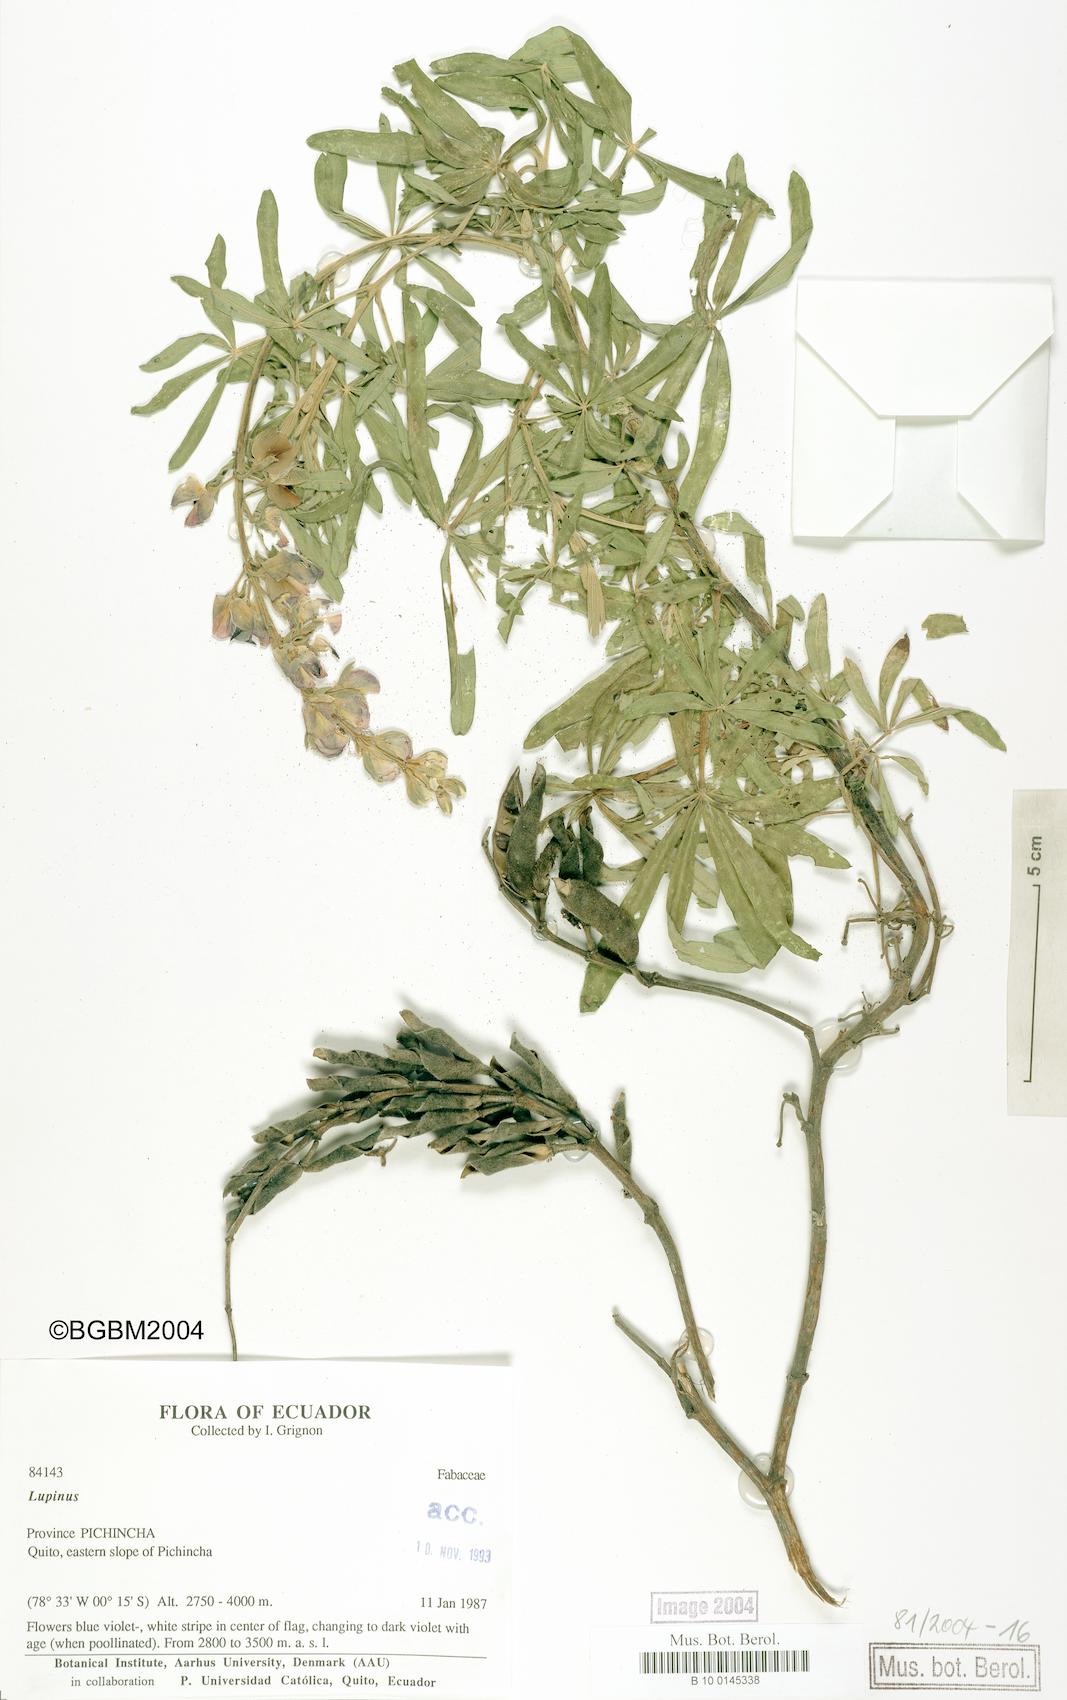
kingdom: Plantae
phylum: Tracheophyta
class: Magnoliopsida
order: Fabales
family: Fabaceae
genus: Lupinus
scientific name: Lupinus
